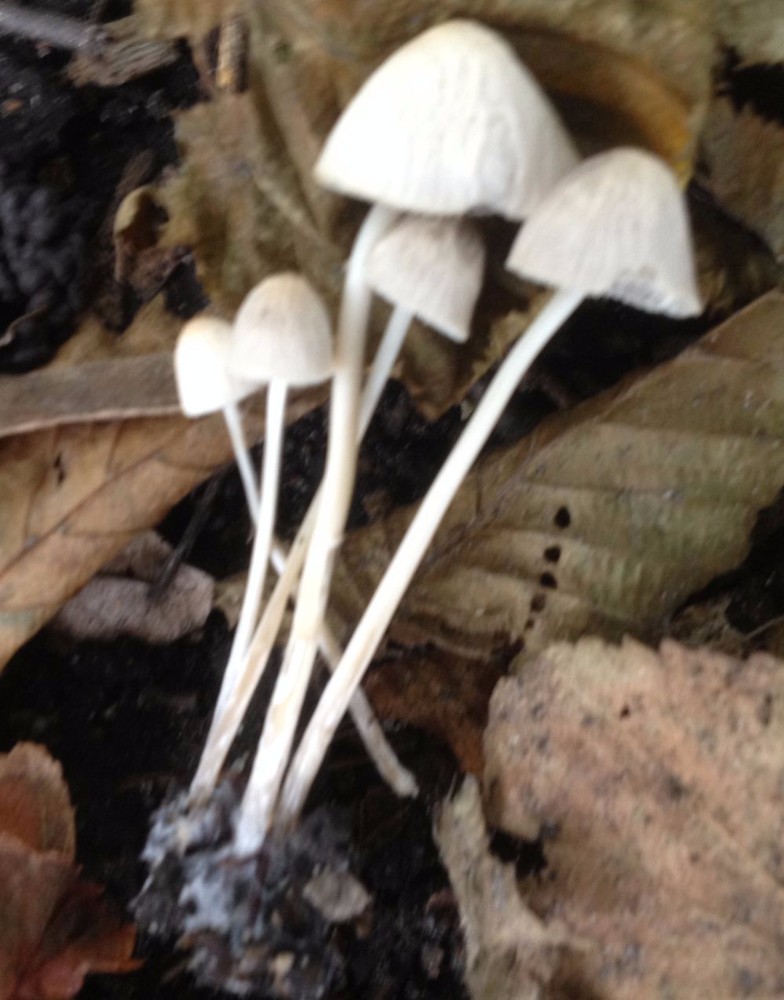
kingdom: Fungi
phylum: Basidiomycota
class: Agaricomycetes
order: Agaricales
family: Psathyrellaceae
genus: Psathyrella
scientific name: Psathyrella
